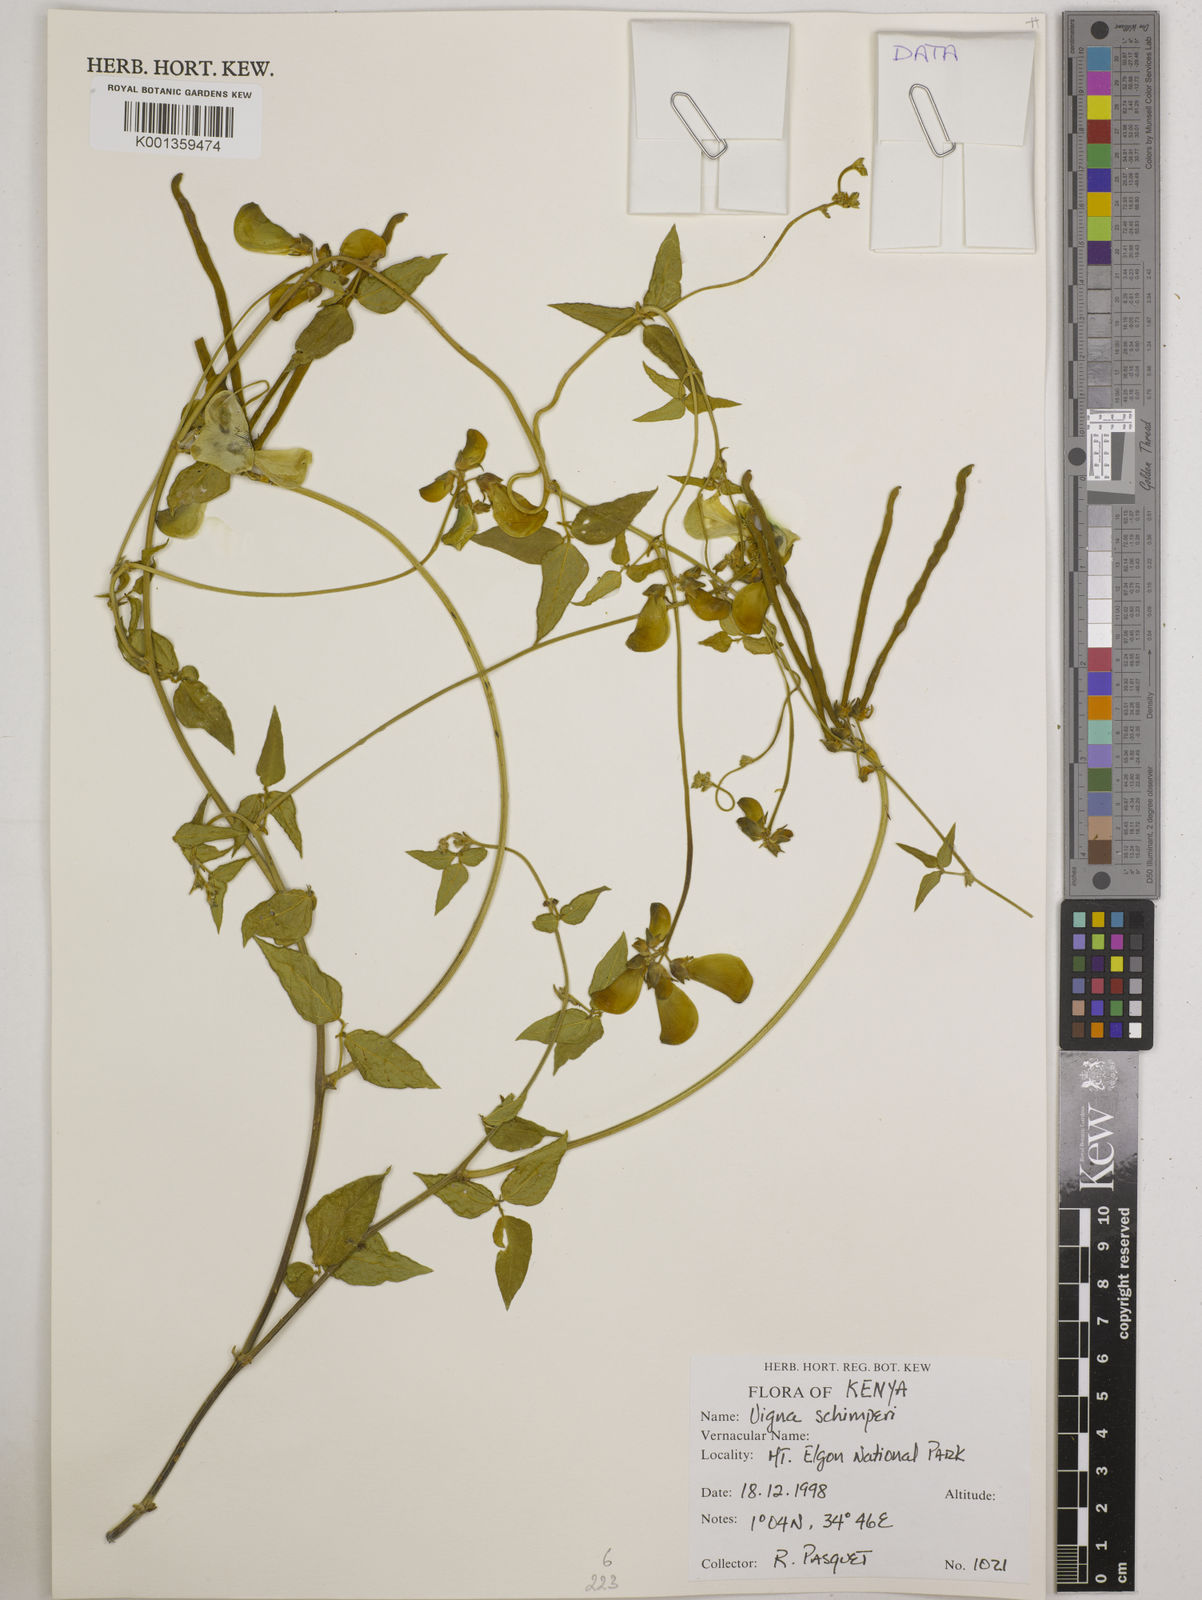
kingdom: Plantae
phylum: Tracheophyta
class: Magnoliopsida
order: Fabales
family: Fabaceae
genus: Vigna
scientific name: Vigna schimperi
